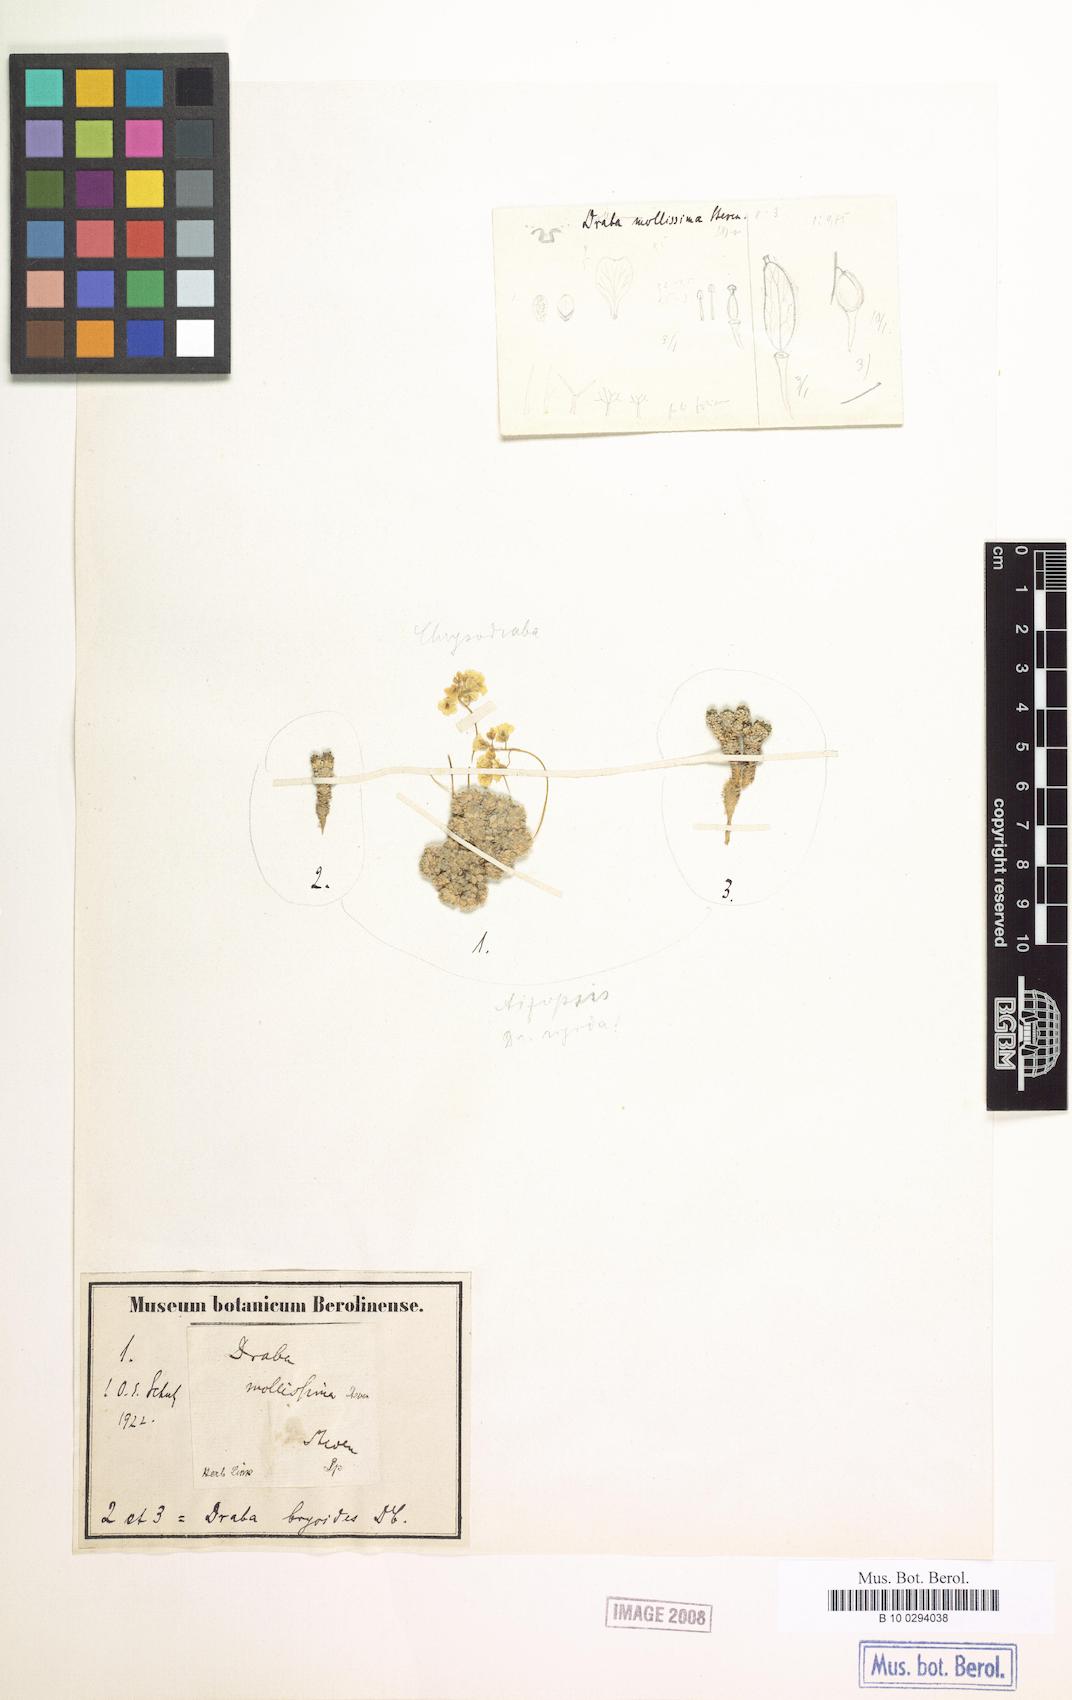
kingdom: Plantae
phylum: Tracheophyta
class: Magnoliopsida
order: Brassicales
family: Brassicaceae
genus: Draba
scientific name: Draba rigida
